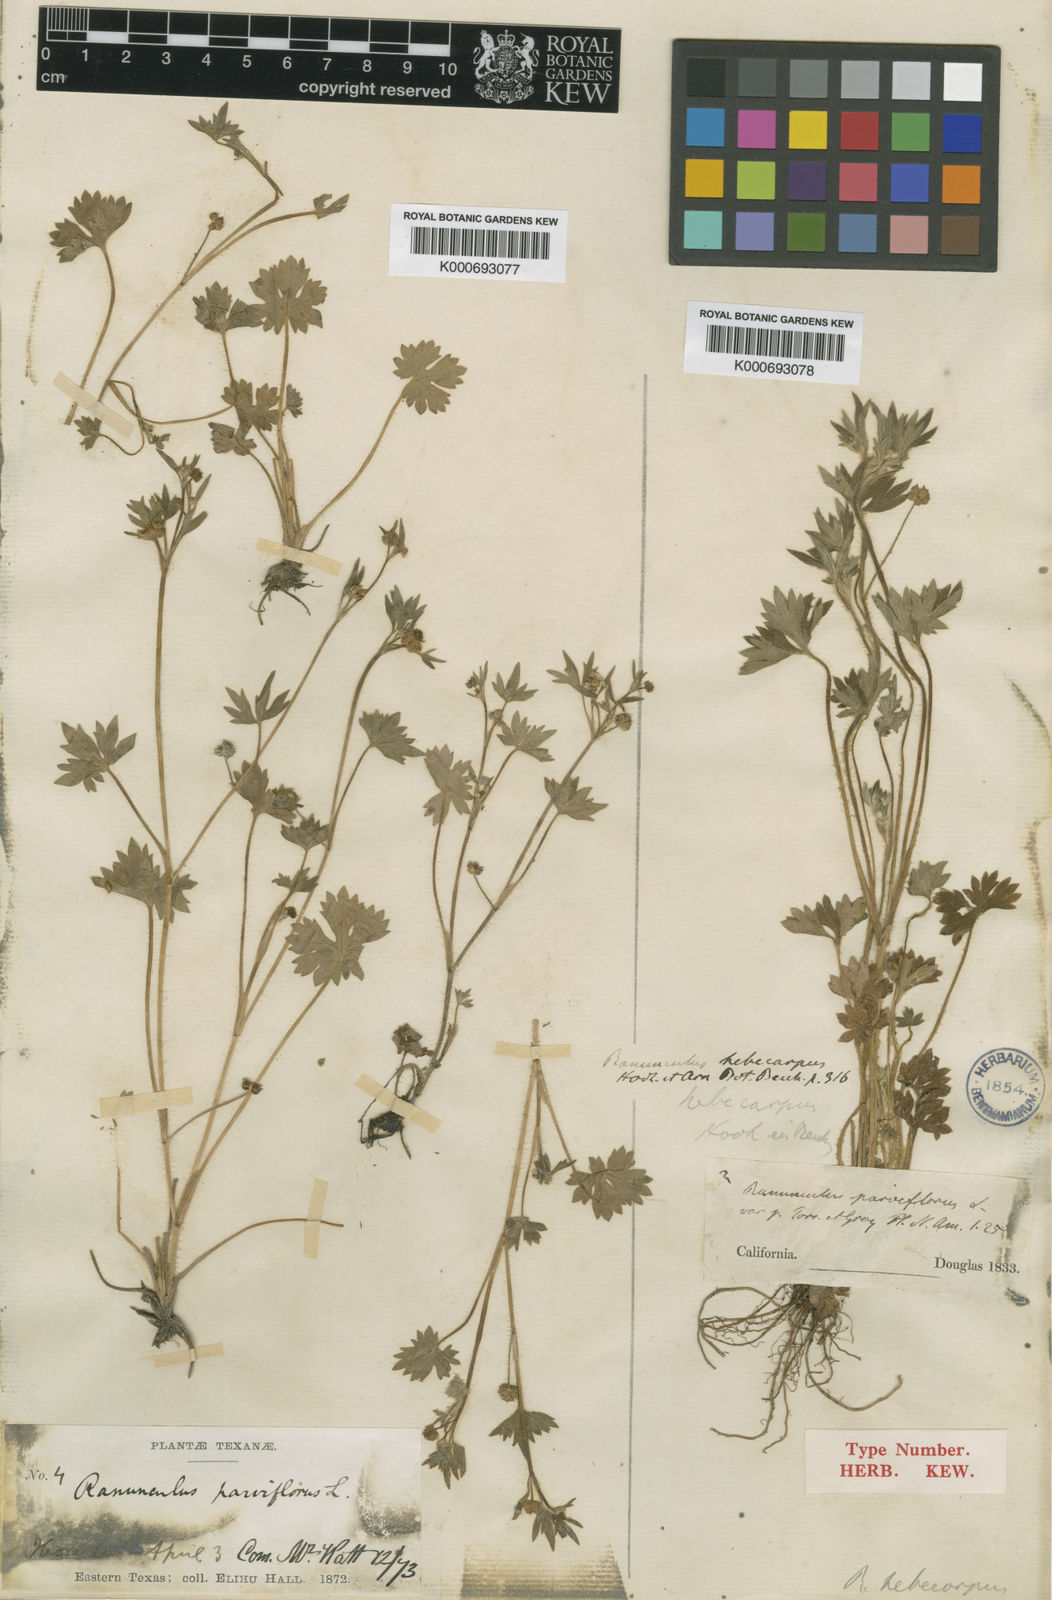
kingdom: Plantae
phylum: Tracheophyta
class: Magnoliopsida
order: Ranunculales
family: Ranunculaceae
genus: Ranunculus
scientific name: Ranunculus hebecarpus
